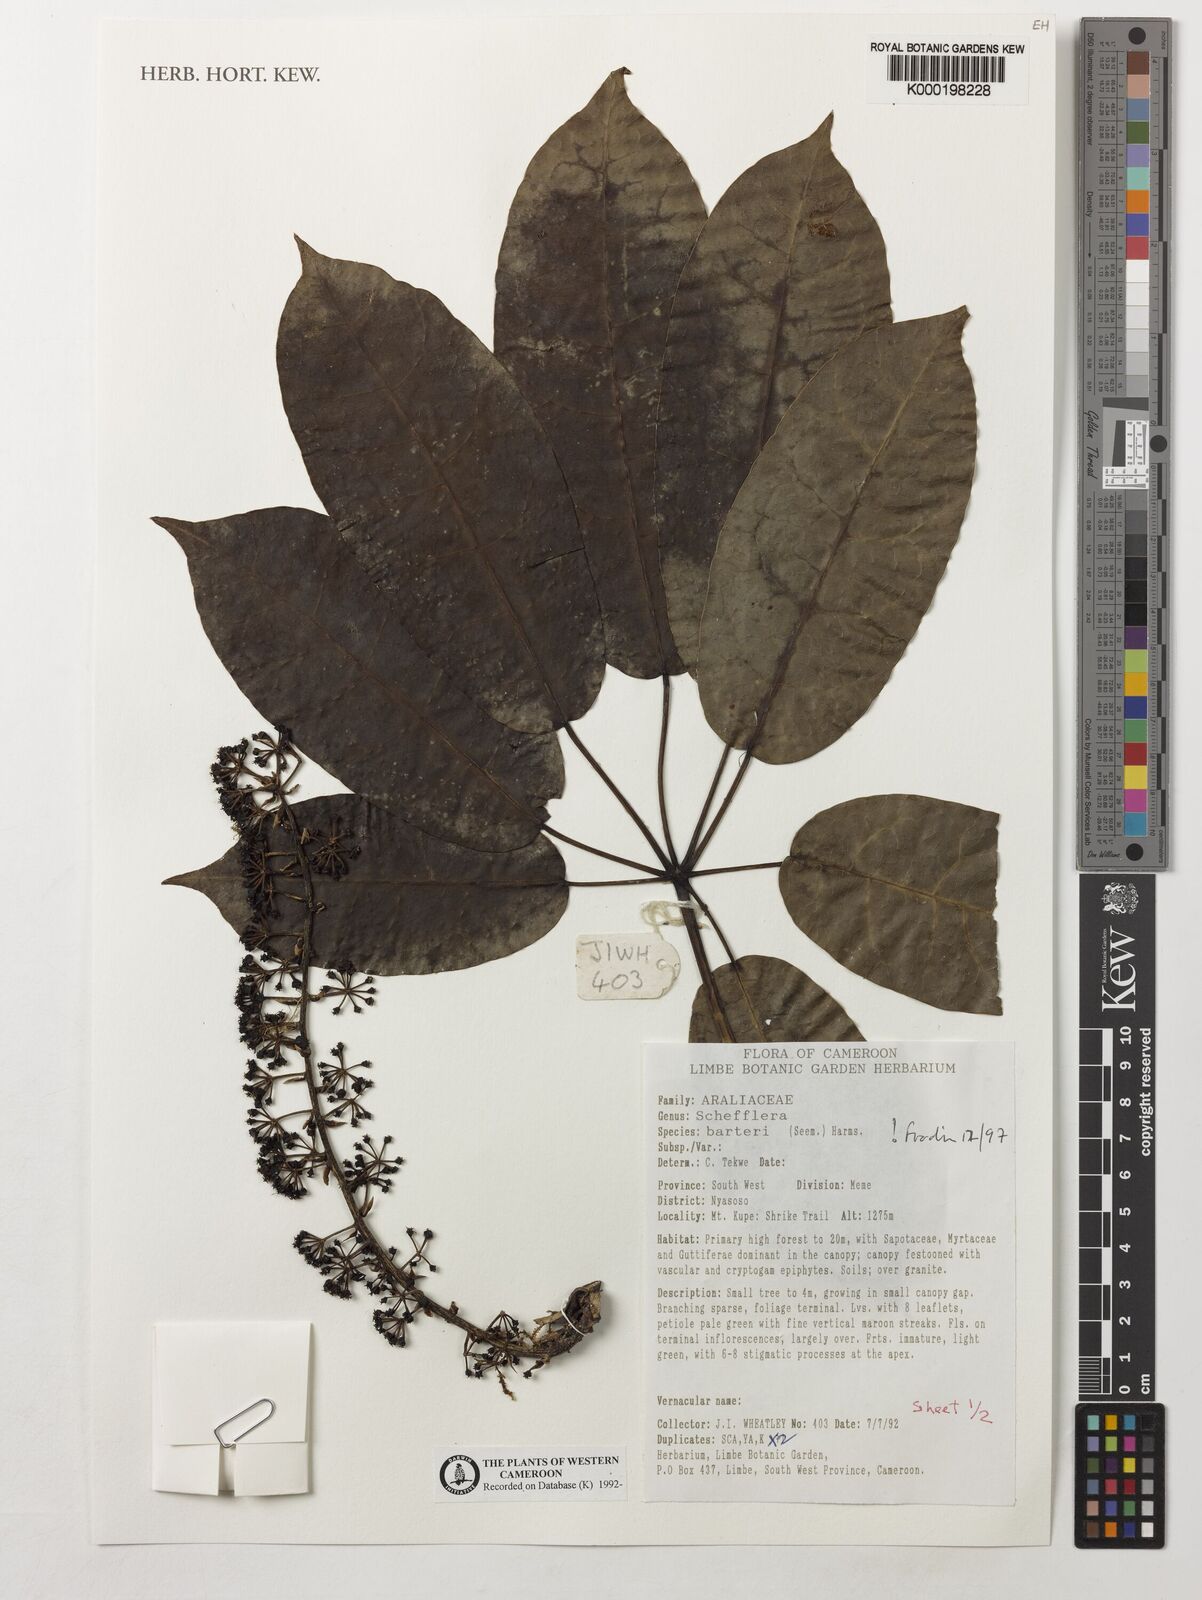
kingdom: Plantae
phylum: Tracheophyta
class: Magnoliopsida
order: Apiales
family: Araliaceae
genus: Astropanax
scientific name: Astropanax barteri
